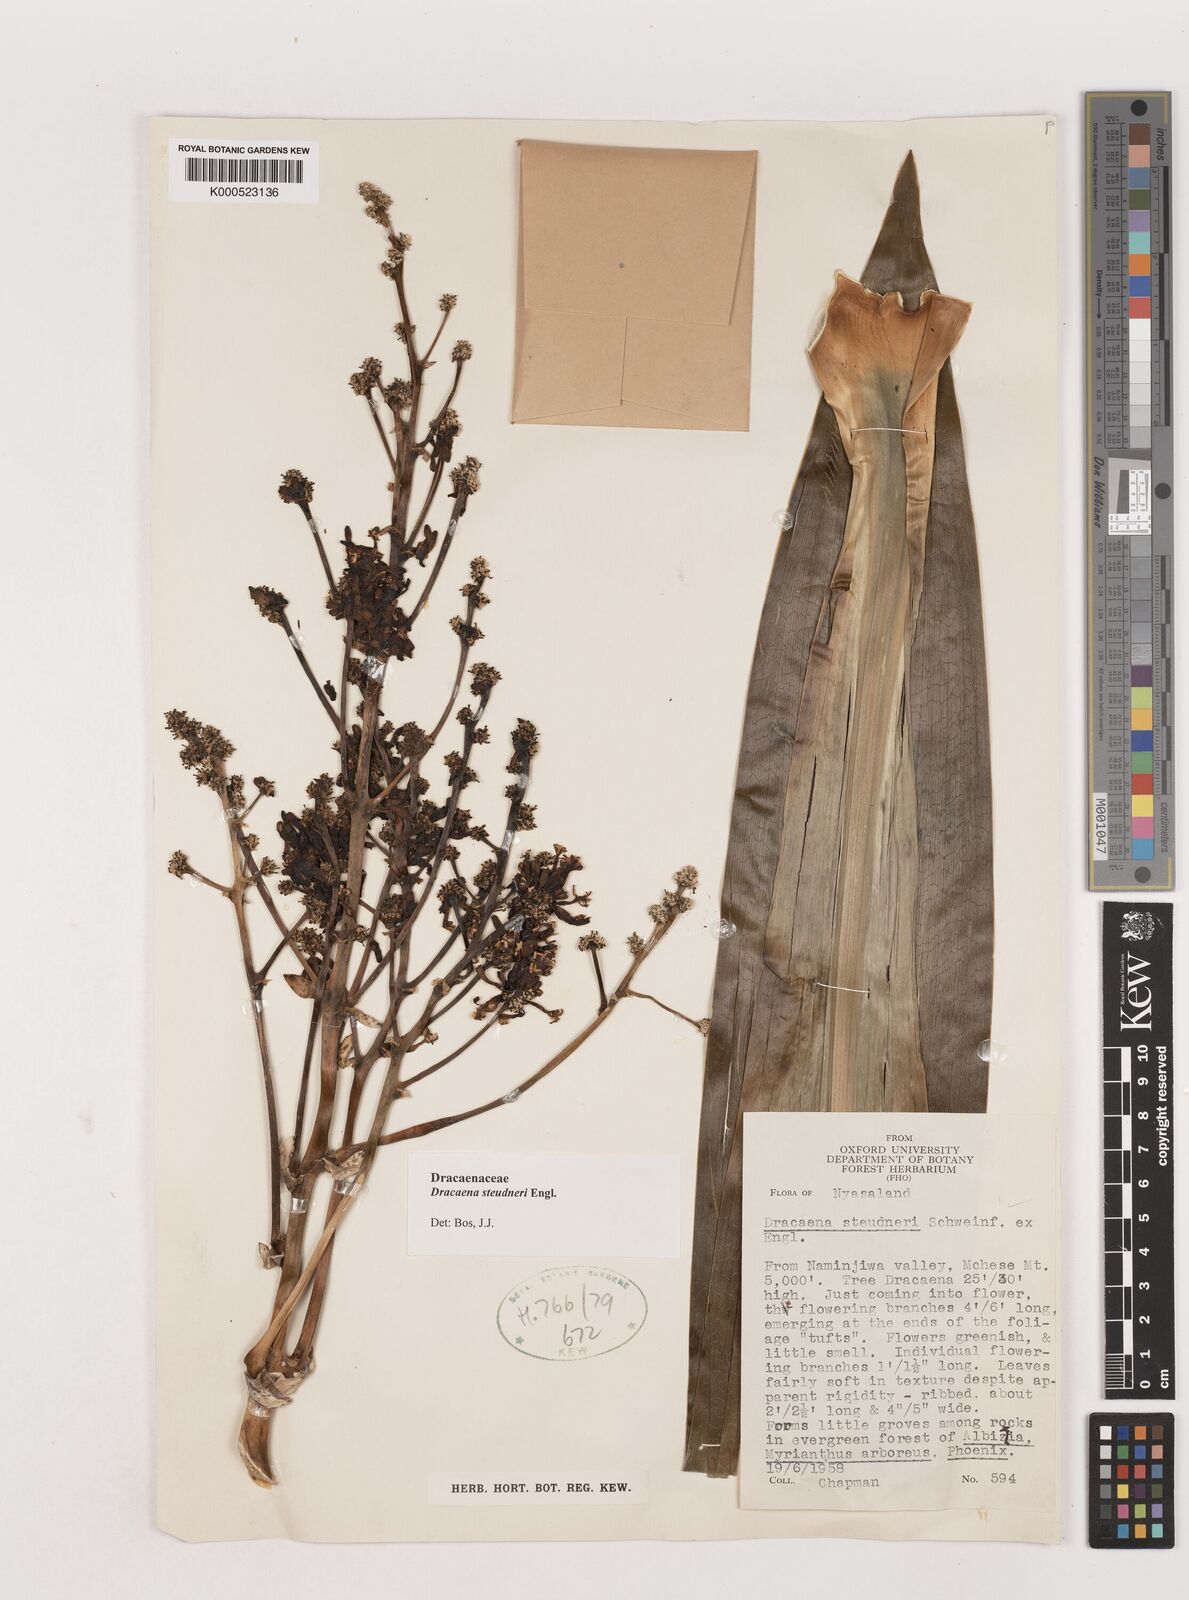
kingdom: Plantae
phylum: Tracheophyta
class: Liliopsida
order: Asparagales
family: Asparagaceae
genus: Dracaena
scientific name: Dracaena steudneri
